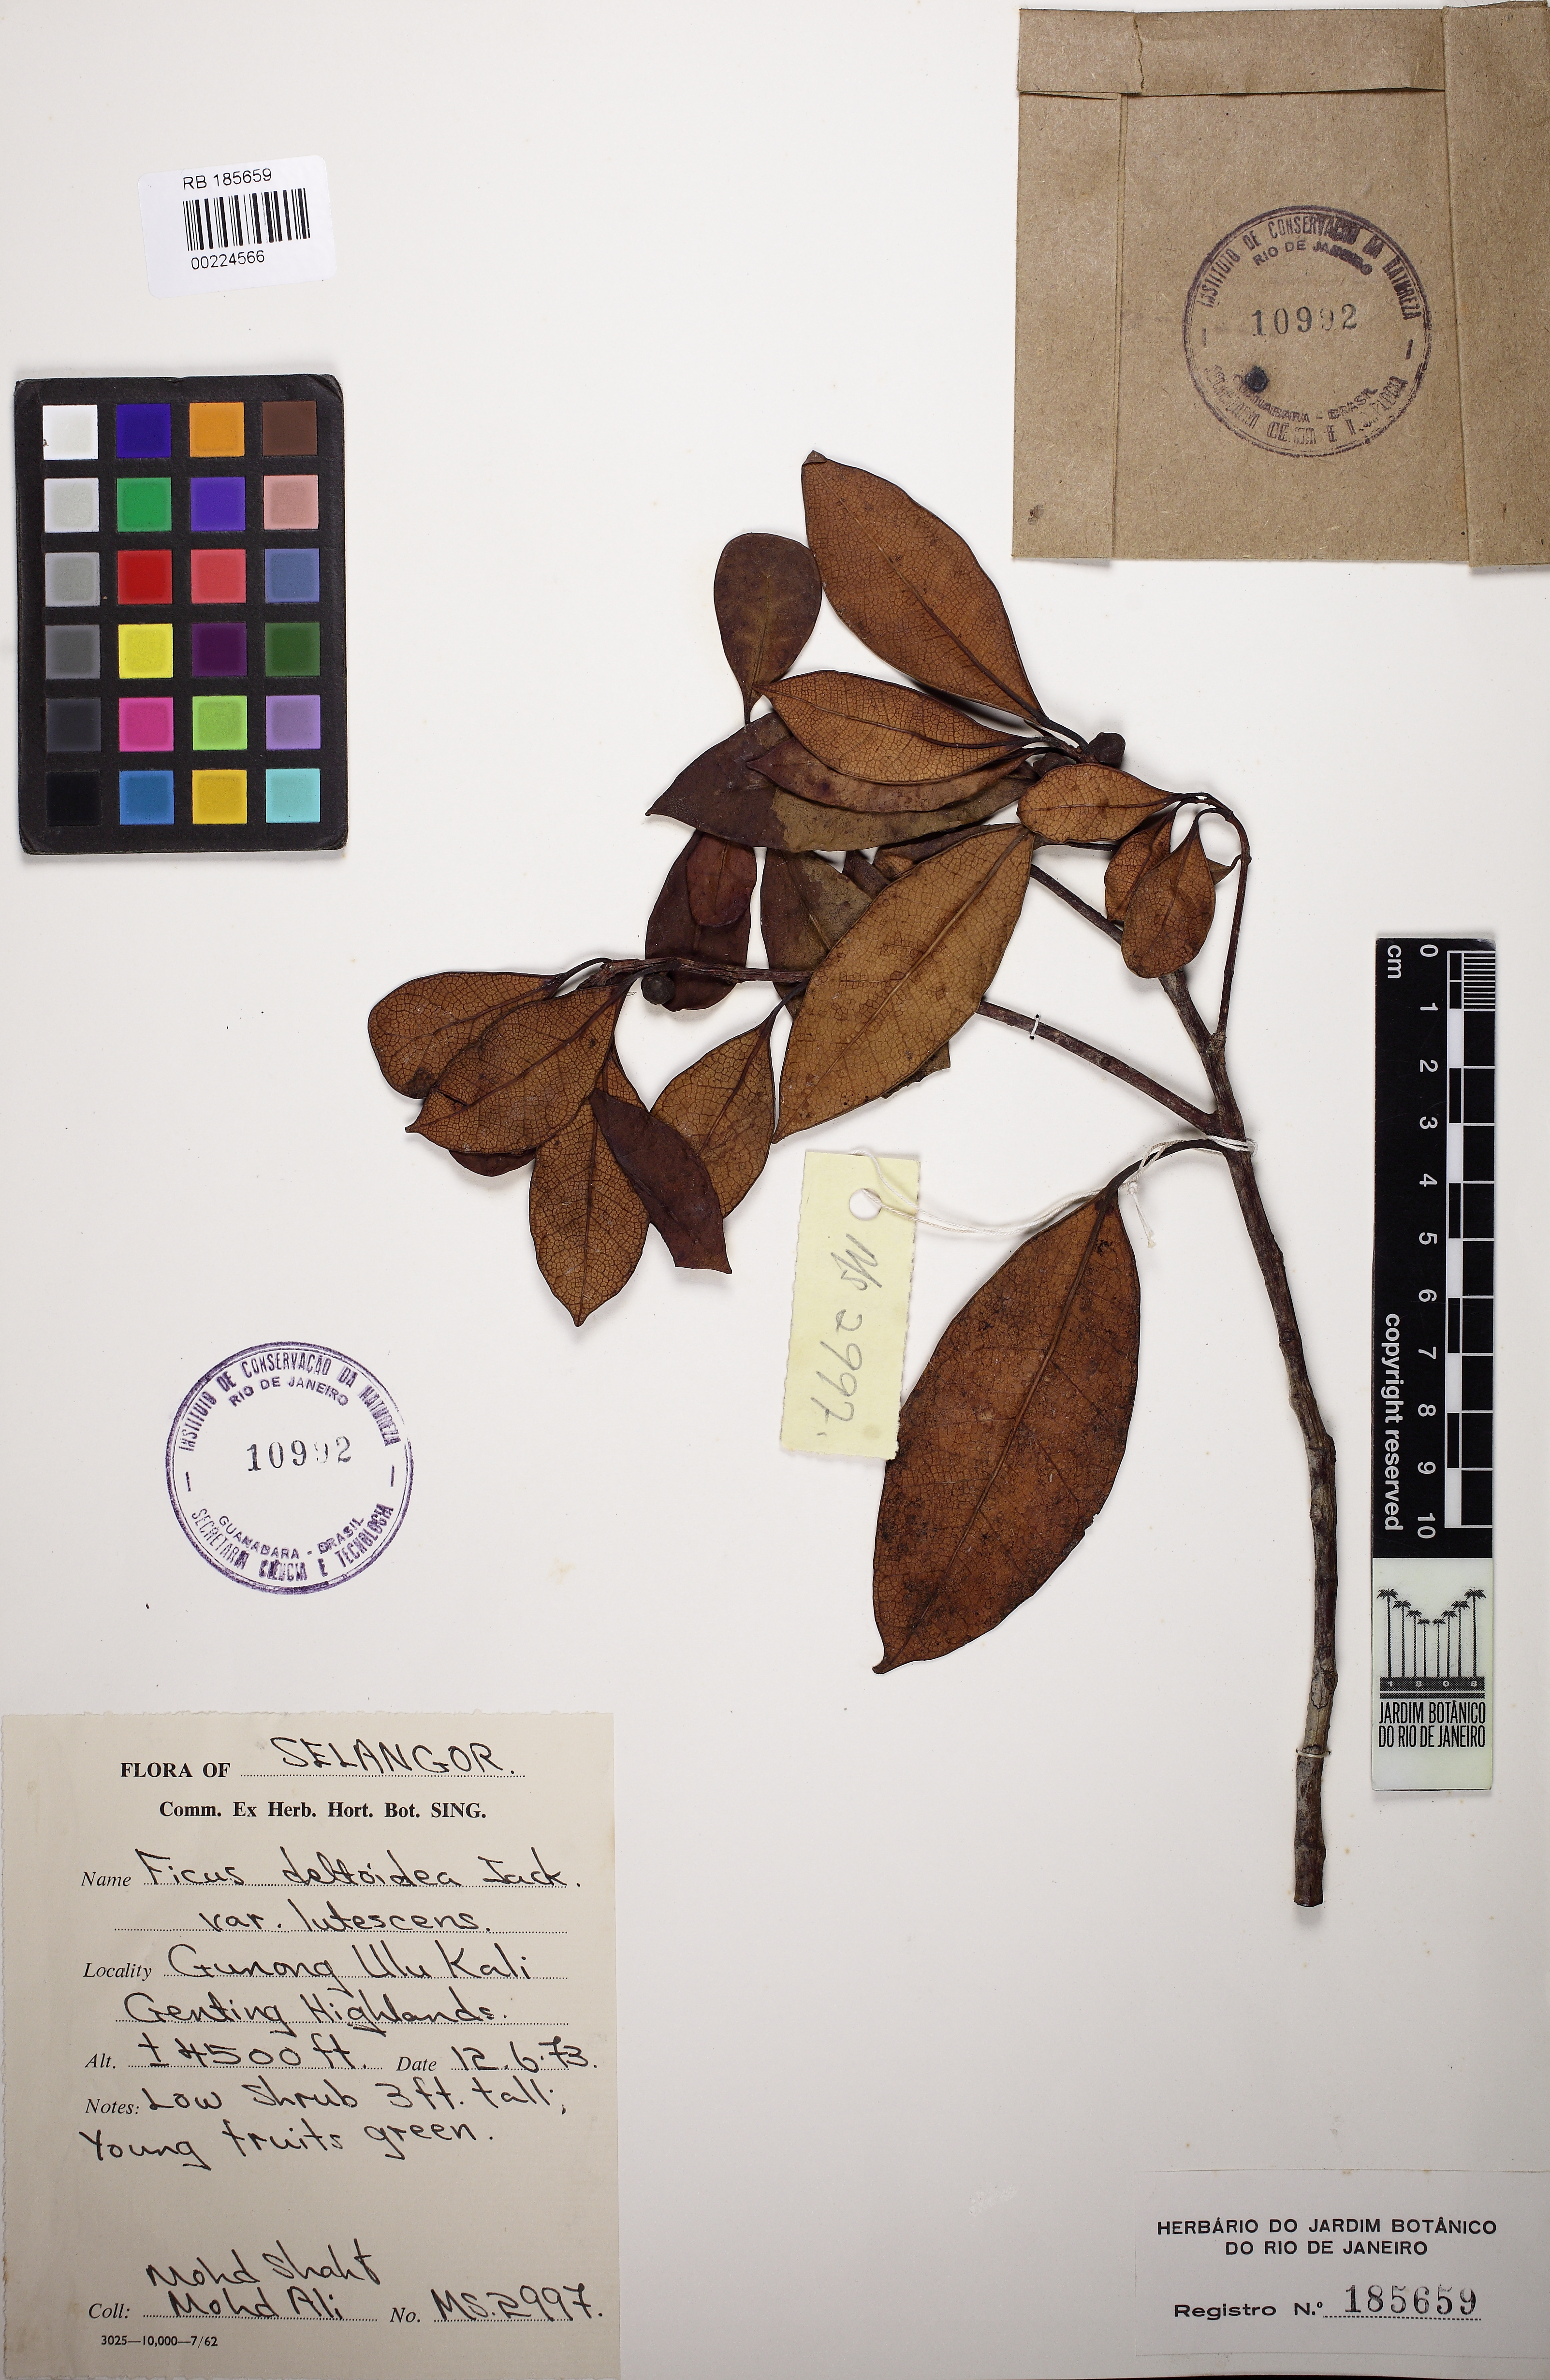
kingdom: Plantae
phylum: Tracheophyta
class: Magnoliopsida
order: Rosales
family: Moraceae
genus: Ficus
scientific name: Ficus deltoidea
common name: Mistletoe fig
